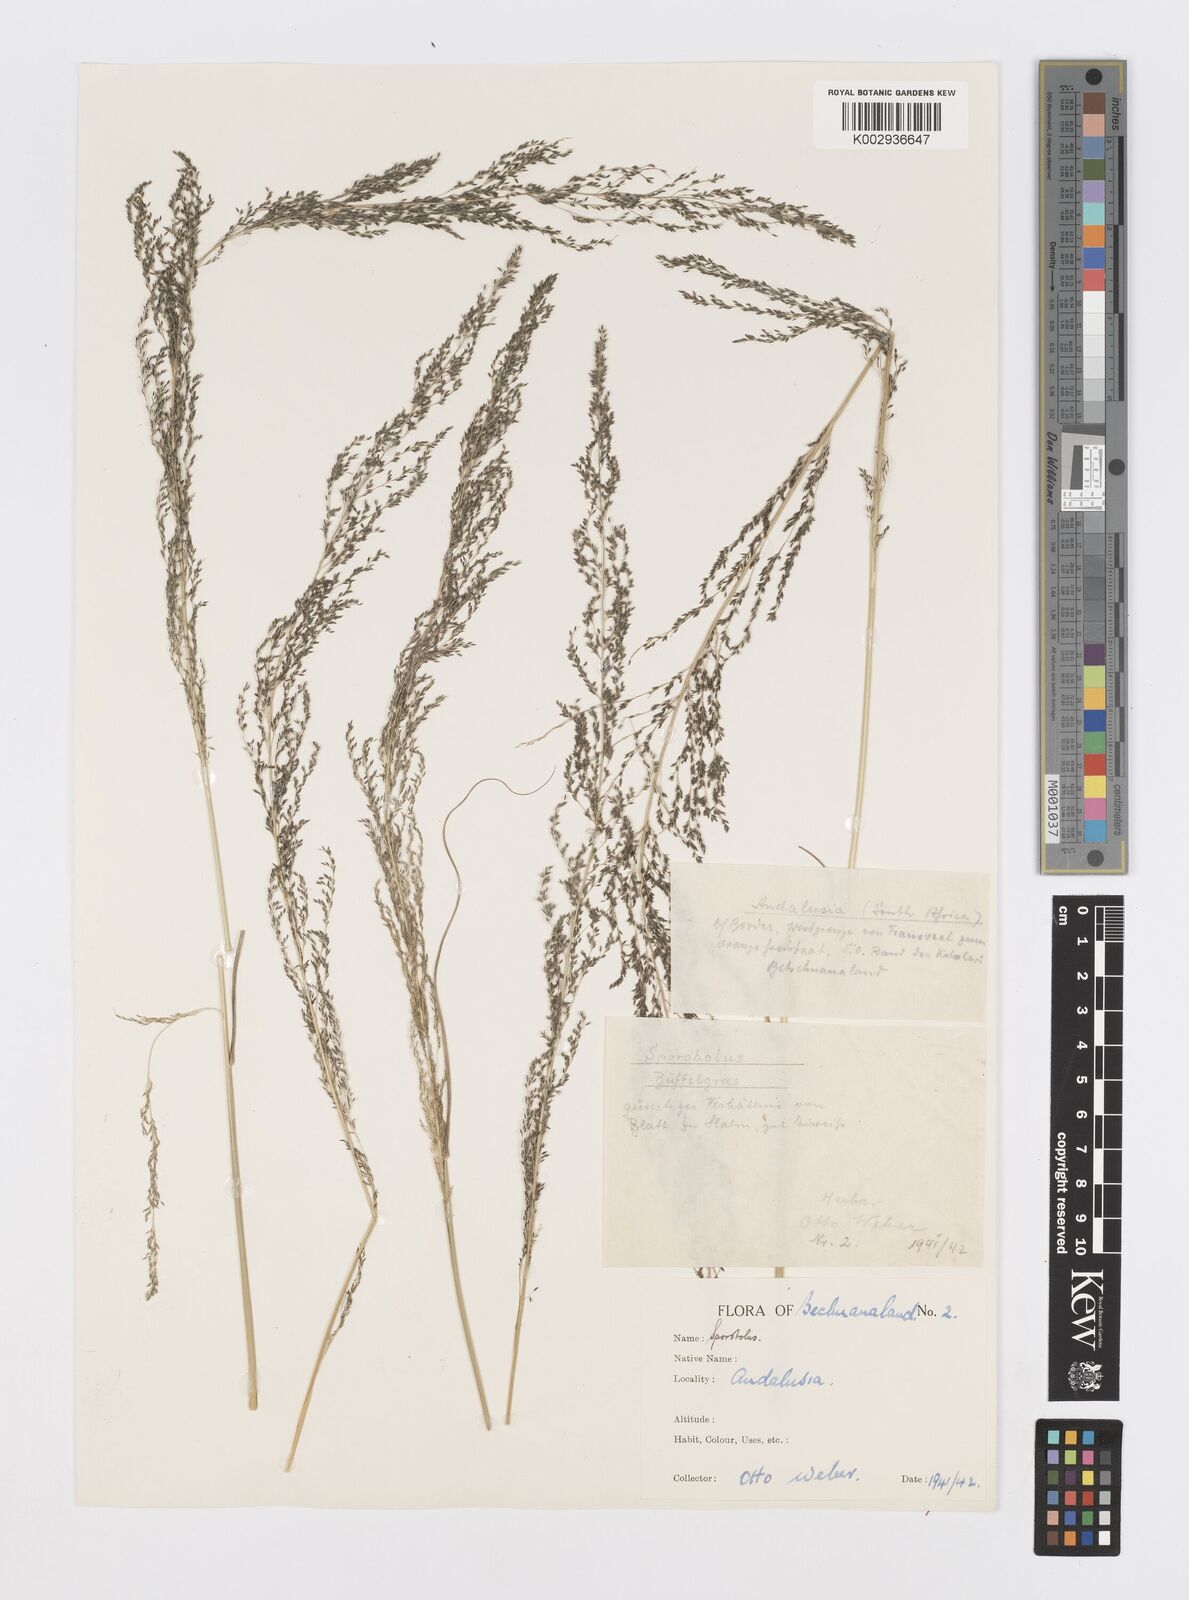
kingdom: Plantae
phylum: Tracheophyta
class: Liliopsida
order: Poales
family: Poaceae
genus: Sporobolus
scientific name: Sporobolus fimbriatus
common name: Fringed dropseed
